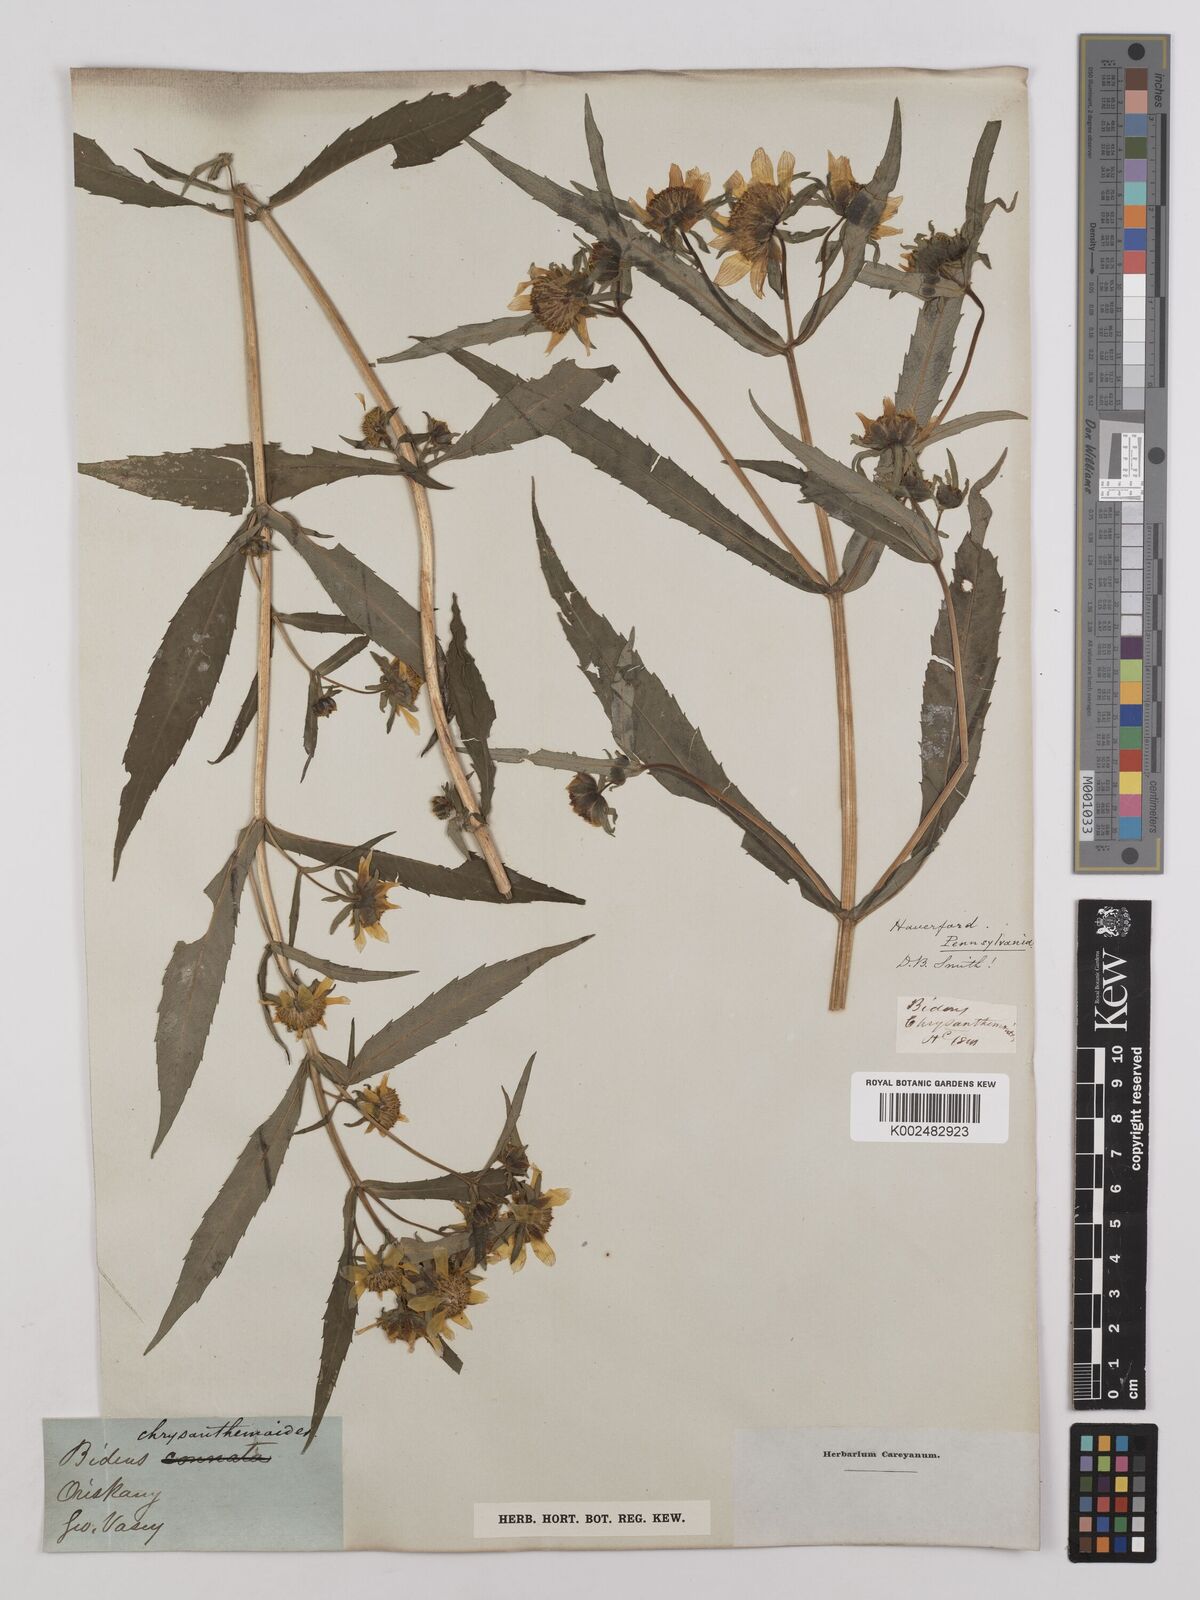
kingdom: Plantae
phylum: Tracheophyta
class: Magnoliopsida
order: Asterales
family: Asteraceae
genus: Bidens
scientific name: Bidens
